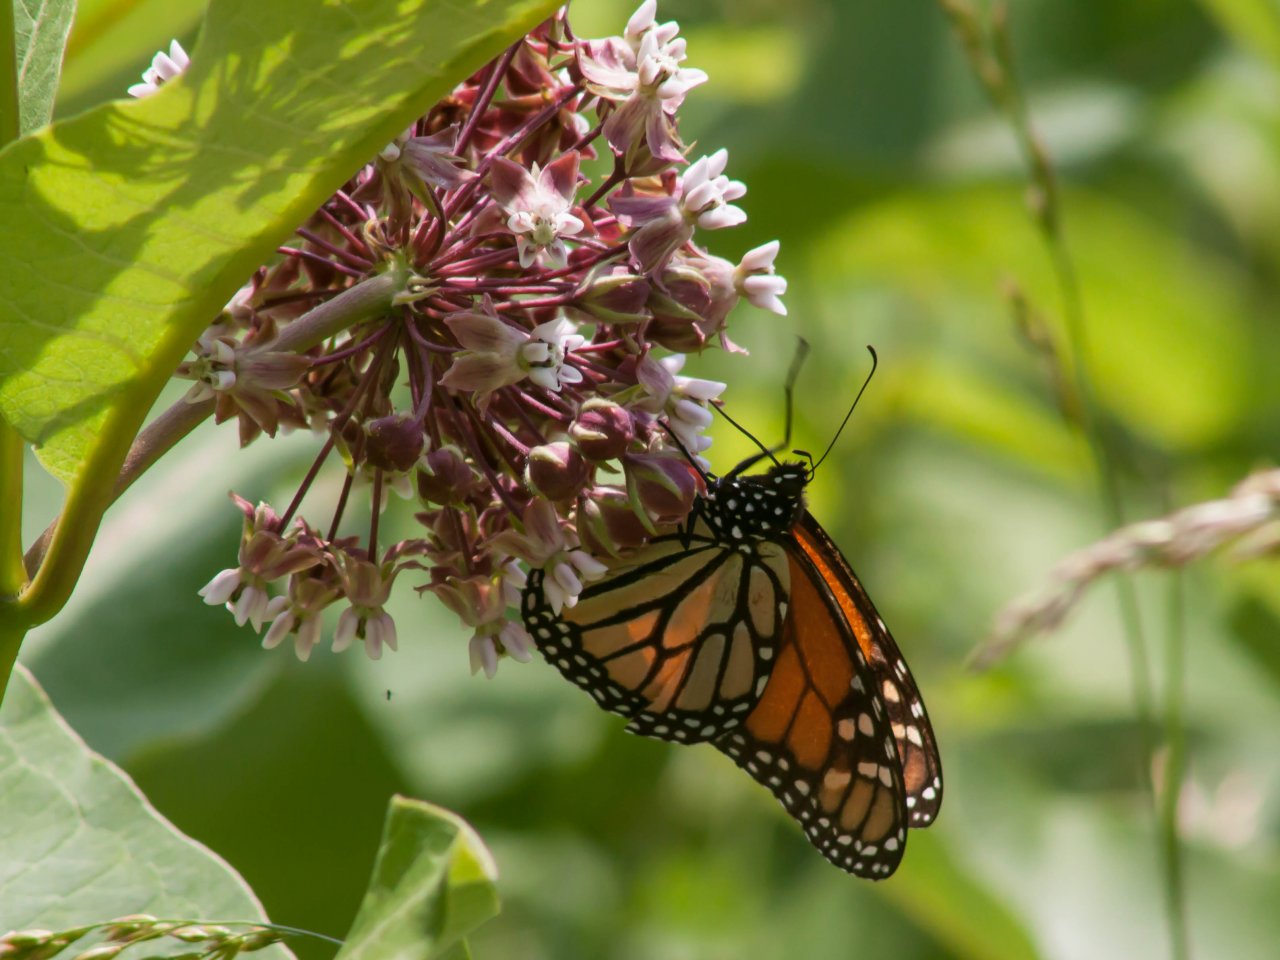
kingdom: Animalia
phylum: Arthropoda
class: Insecta
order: Lepidoptera
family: Nymphalidae
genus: Danaus
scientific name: Danaus plexippus
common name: Monarch
